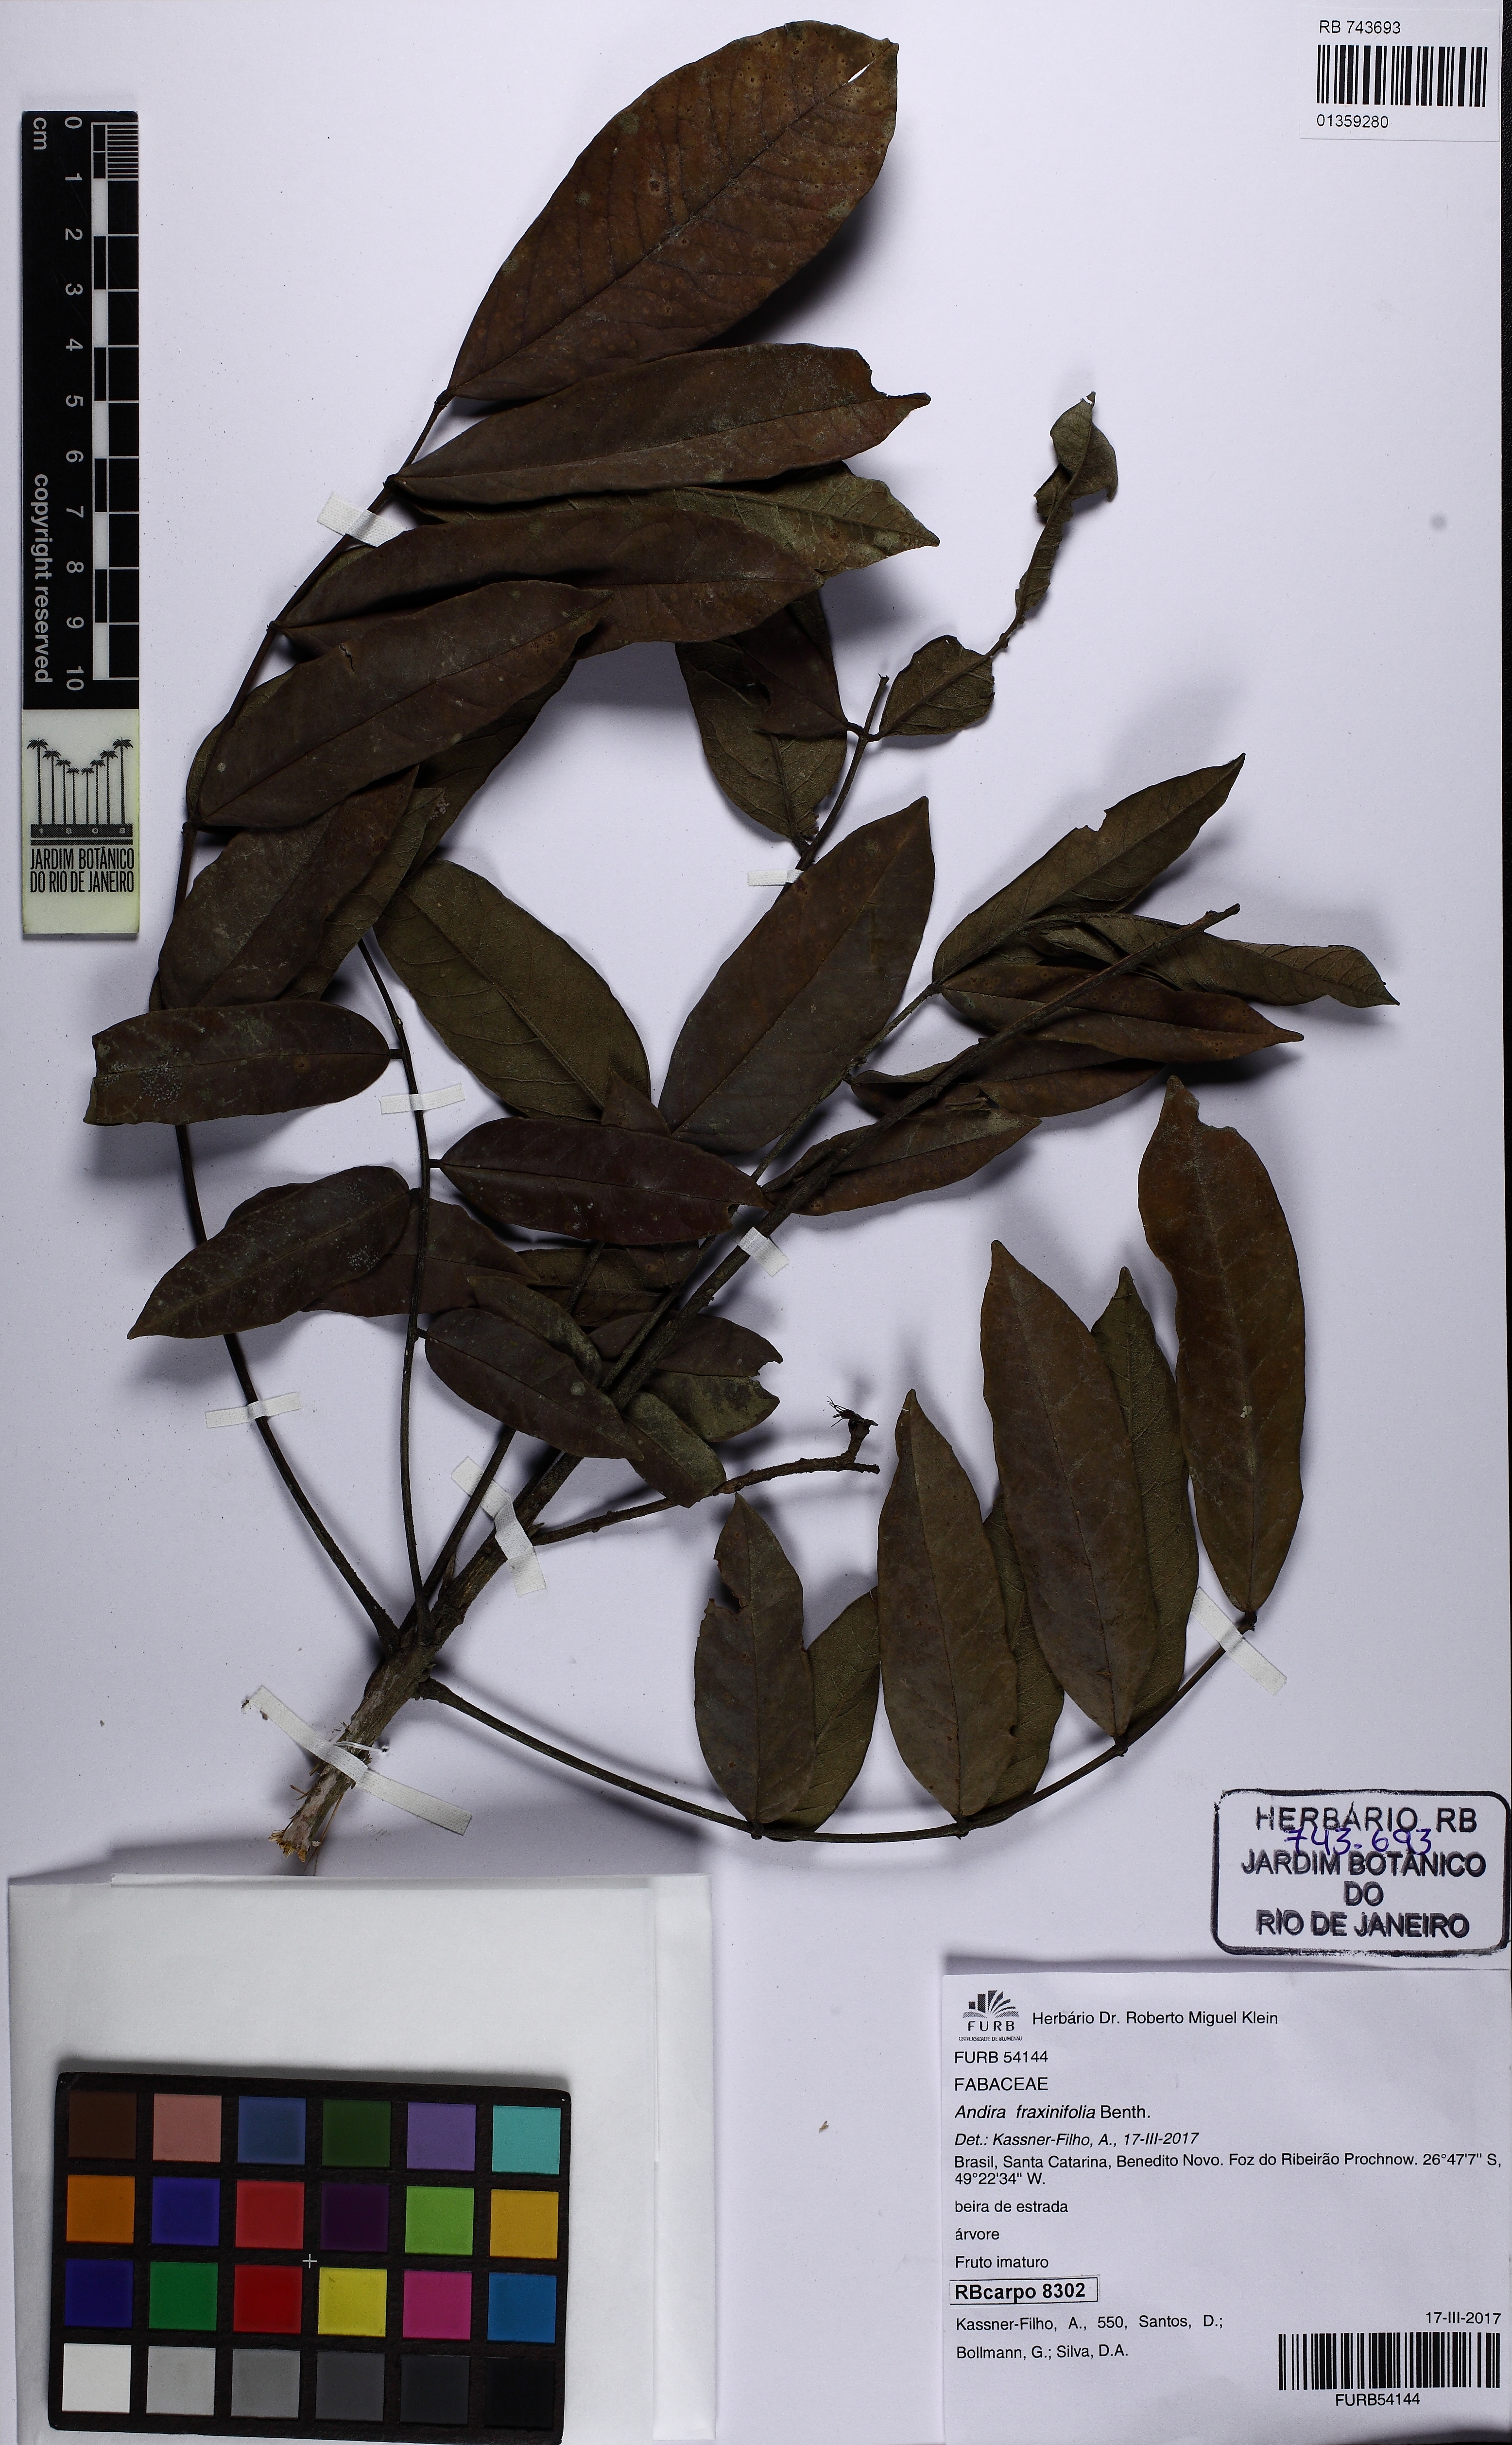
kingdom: Plantae
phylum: Tracheophyta
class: Magnoliopsida
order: Fabales
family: Fabaceae
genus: Andira
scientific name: Andira fraxinifolia
